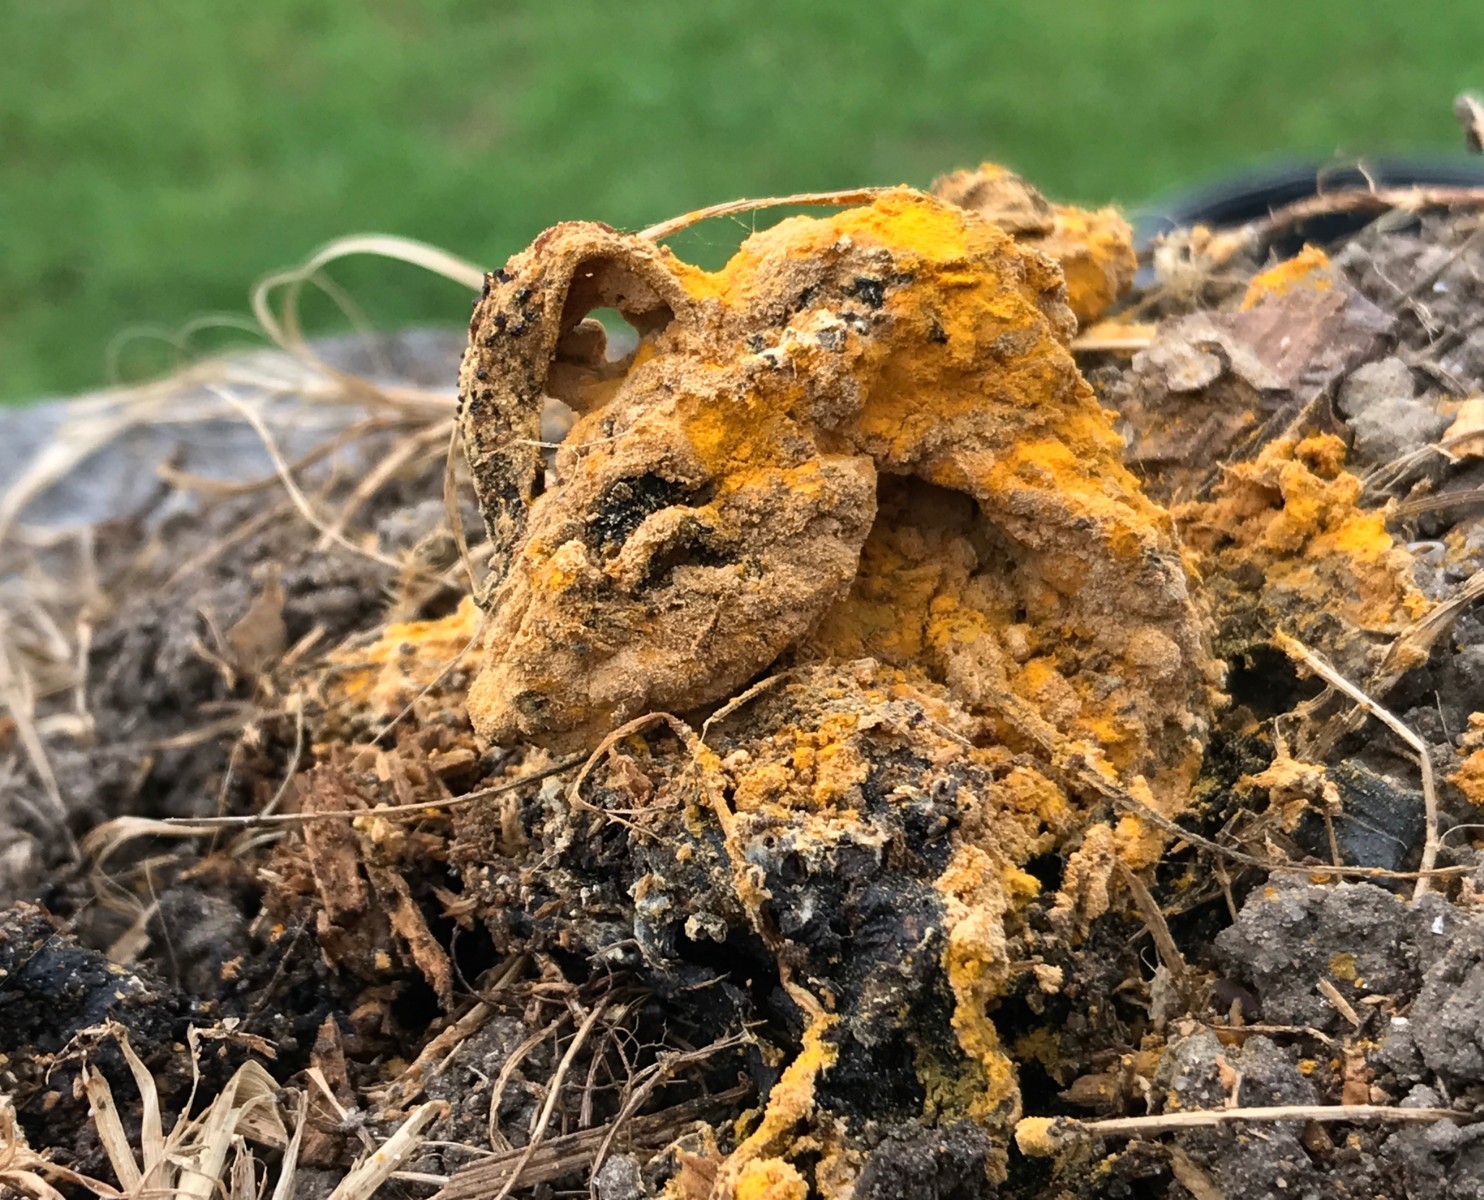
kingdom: Fungi
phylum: Ascomycota
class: Sordariomycetes
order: Hypocreales
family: Hypocreaceae
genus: Hypomyces
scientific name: Hypomyces
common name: snylteskorpe
